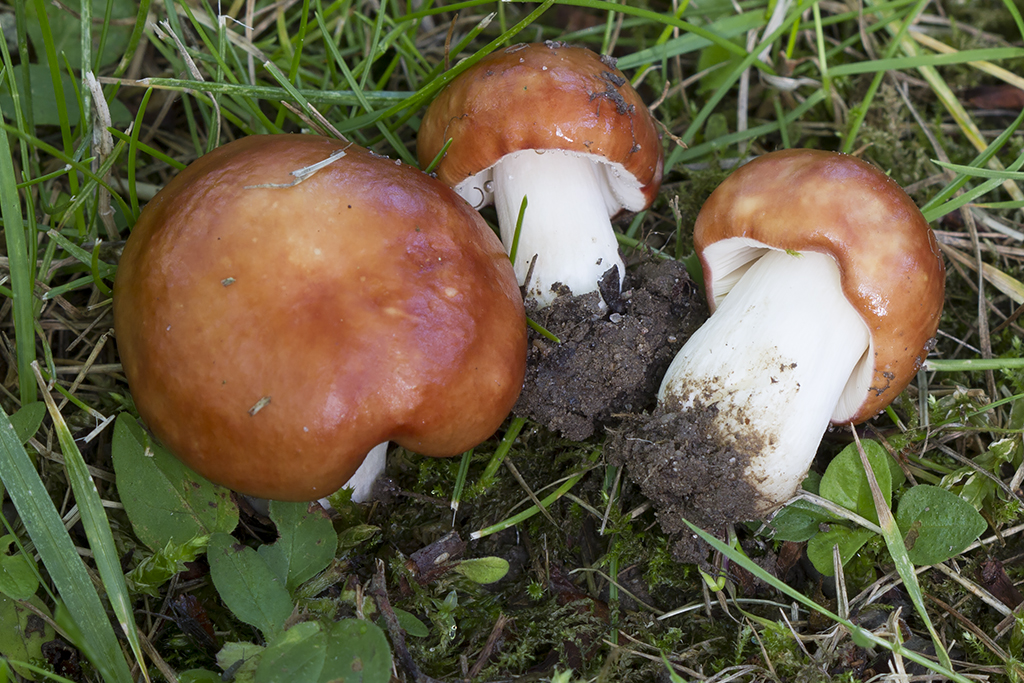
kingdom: Fungi
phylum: Basidiomycota
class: Agaricomycetes
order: Russulales
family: Russulaceae
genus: Russula
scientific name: Russula
